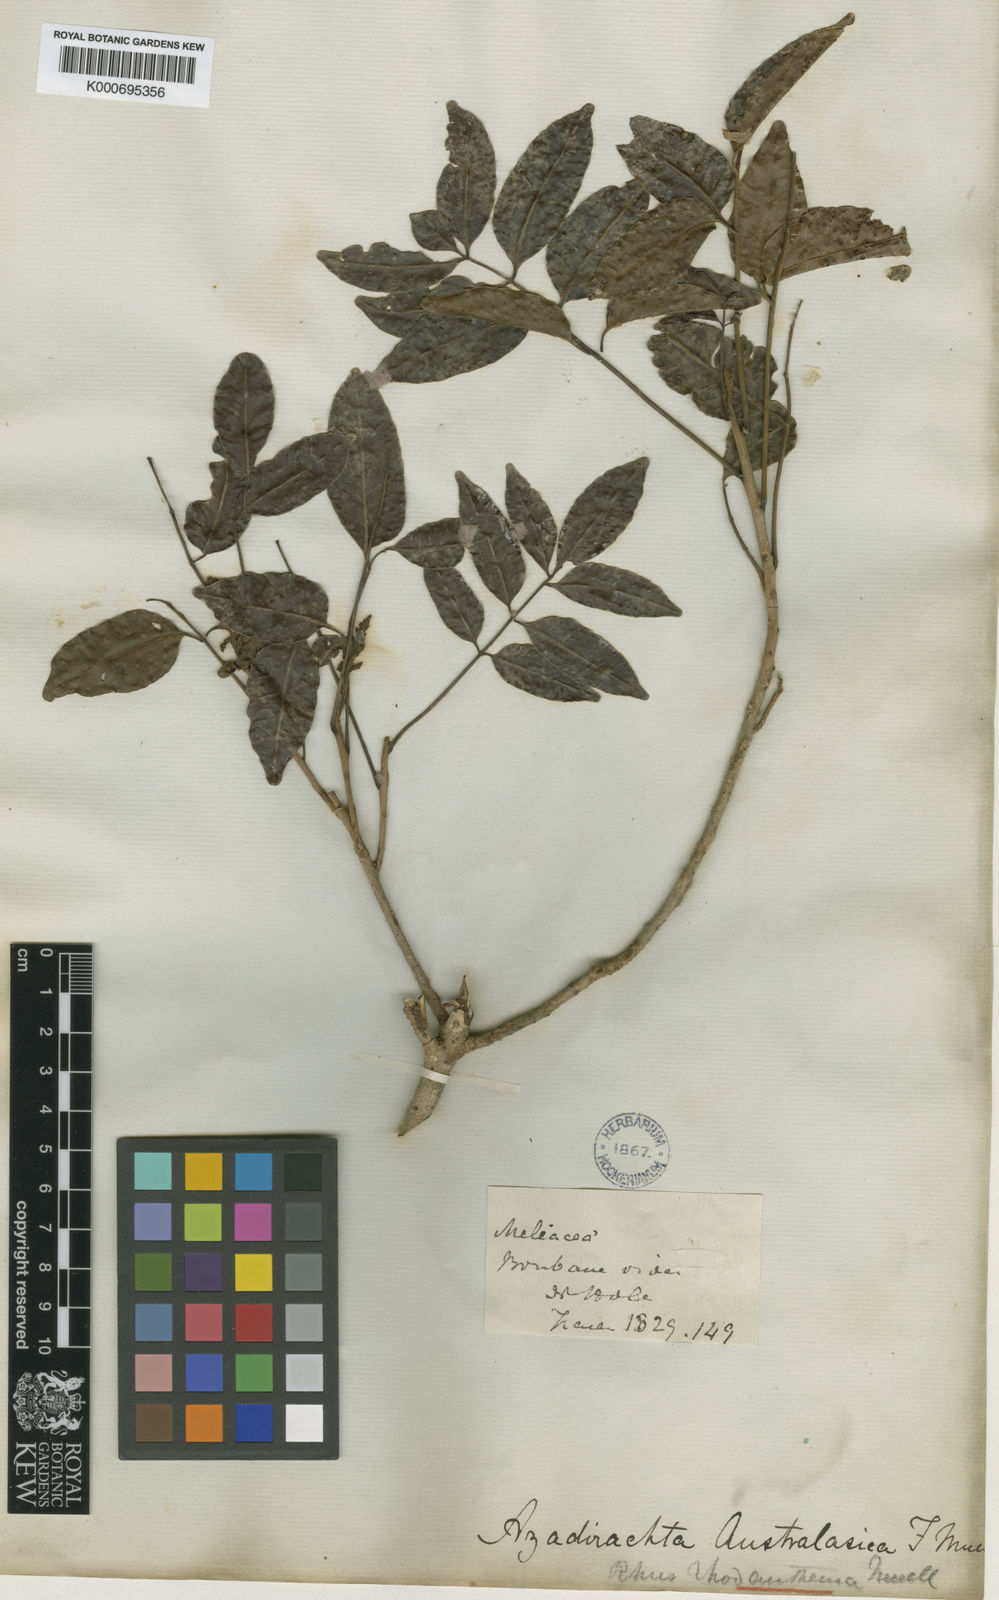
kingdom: Plantae
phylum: Tracheophyta
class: Magnoliopsida
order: Sapindales
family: Anacardiaceae
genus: Rhodosphaera
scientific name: Rhodosphaera rhodanthema
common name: Tulip satinwood
